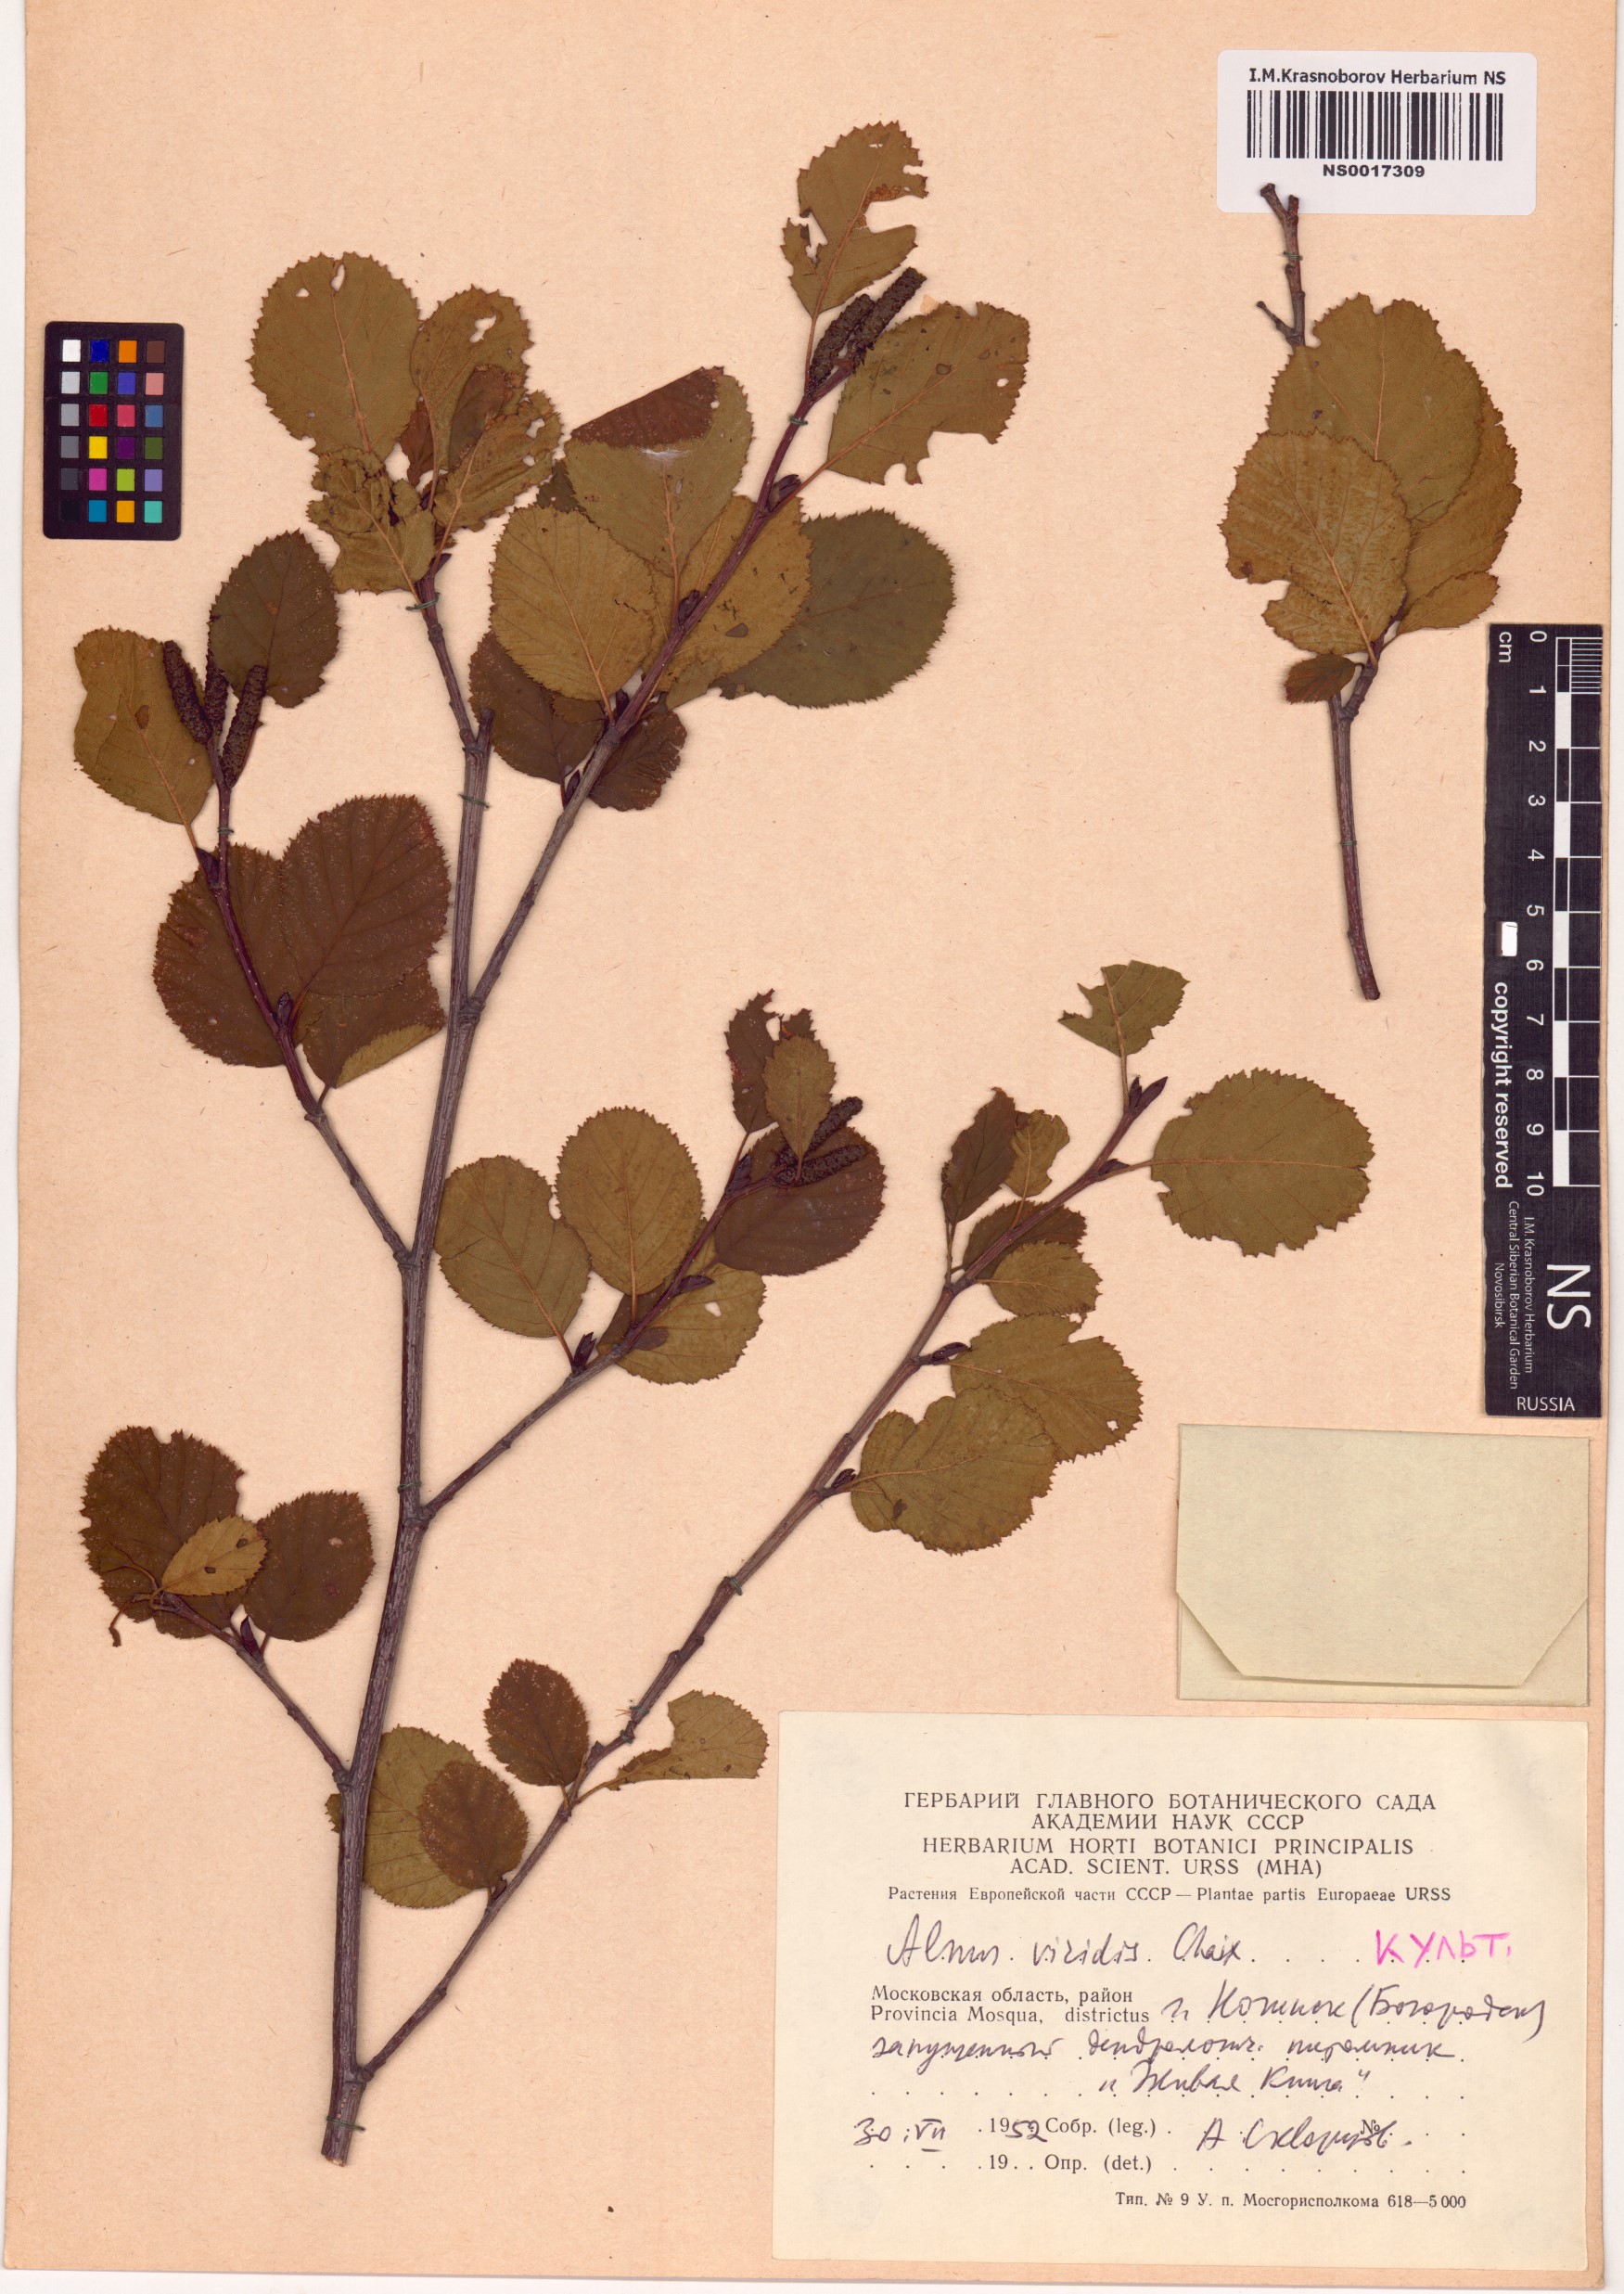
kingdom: Plantae
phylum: Tracheophyta
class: Magnoliopsida
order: Fagales
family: Betulaceae
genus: Alnus
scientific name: Alnus alnobetula
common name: Green alder
